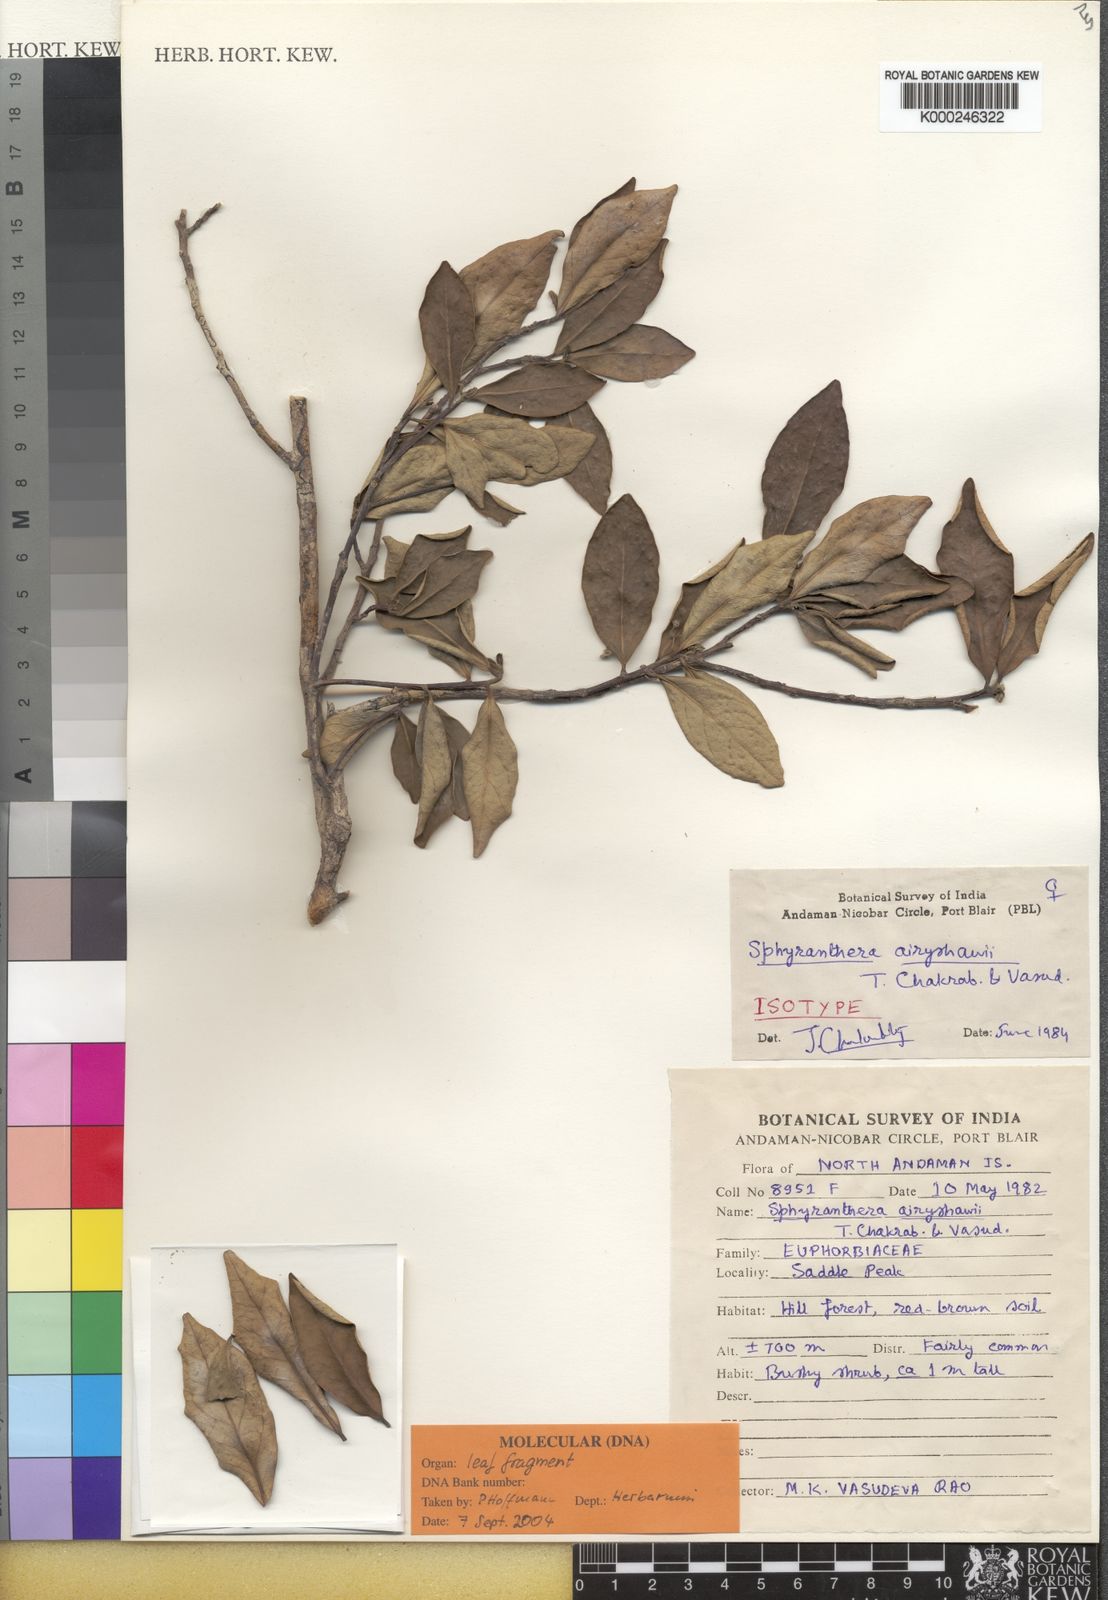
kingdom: Plantae
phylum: Tracheophyta
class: Magnoliopsida
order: Malpighiales
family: Euphorbiaceae
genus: Sphyranthera
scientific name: Sphyranthera airyshawii
